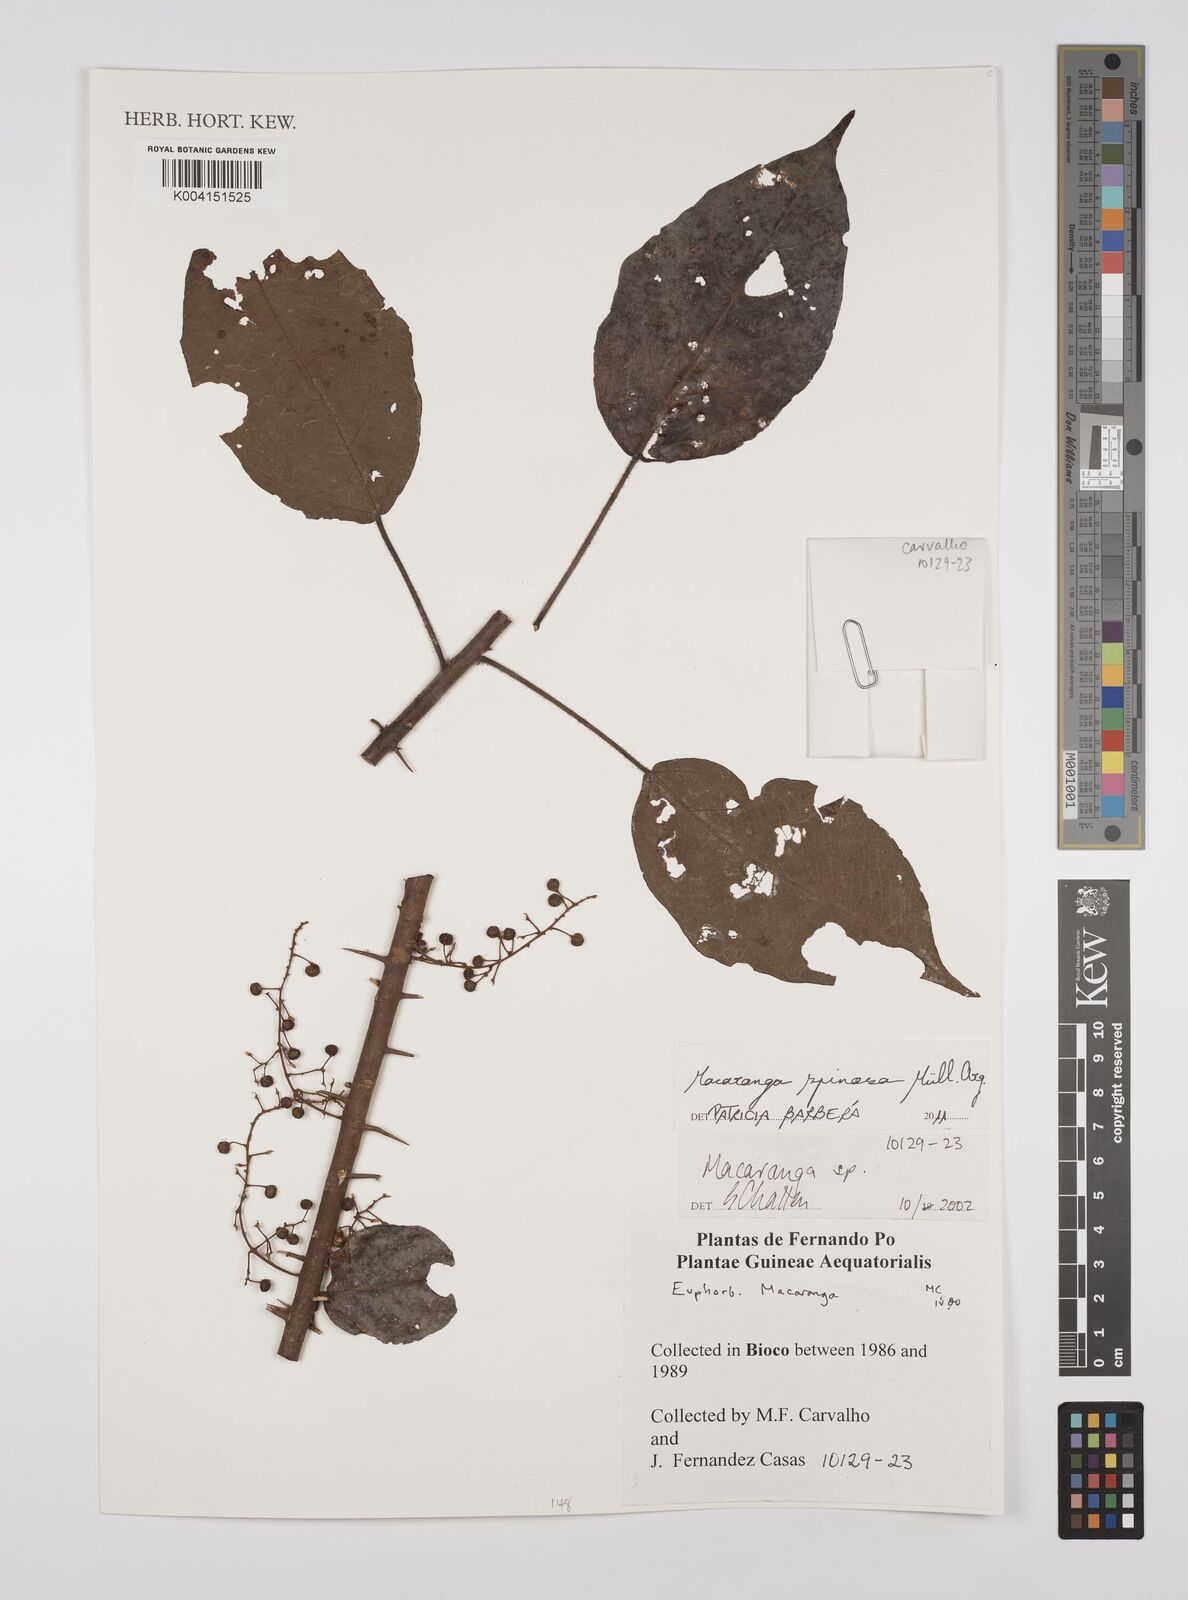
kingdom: Plantae
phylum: Tracheophyta
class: Magnoliopsida
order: Malpighiales
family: Euphorbiaceae
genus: Macaranga
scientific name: Macaranga spinosa
